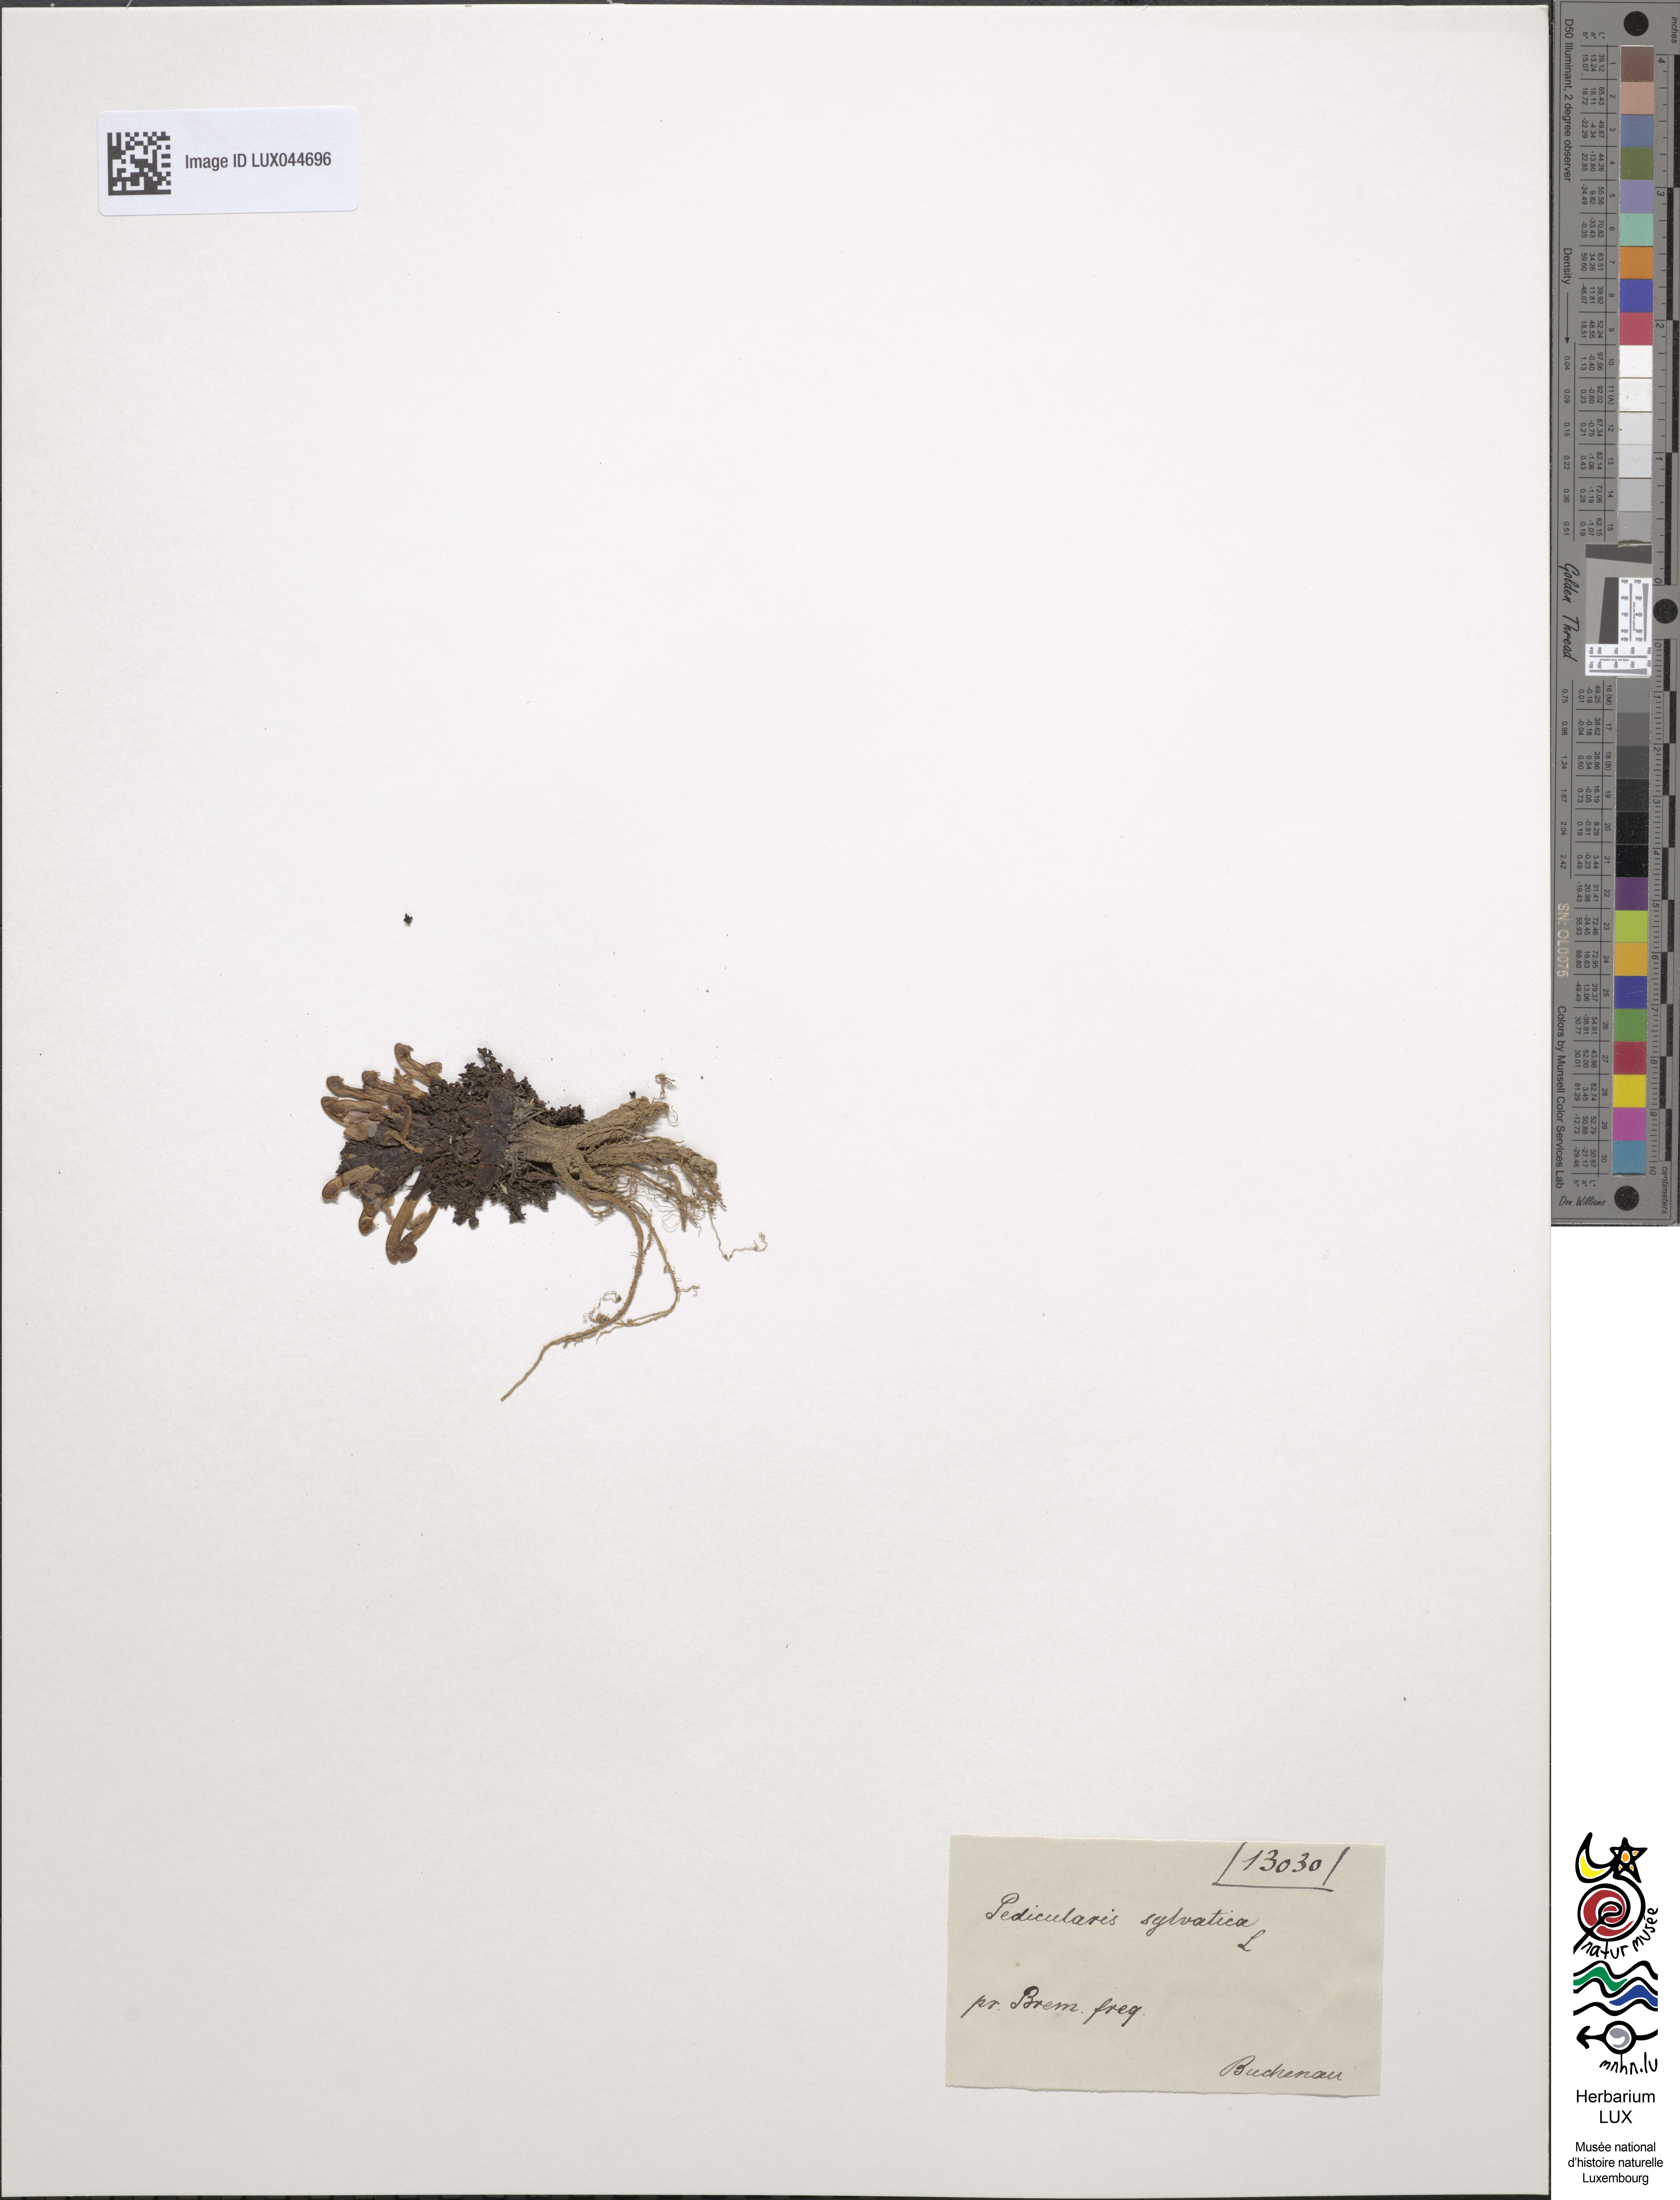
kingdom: Plantae
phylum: Tracheophyta
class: Magnoliopsida
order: Lamiales
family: Orobanchaceae
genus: Pedicularis
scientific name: Pedicularis sylvatica
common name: Lousewort
